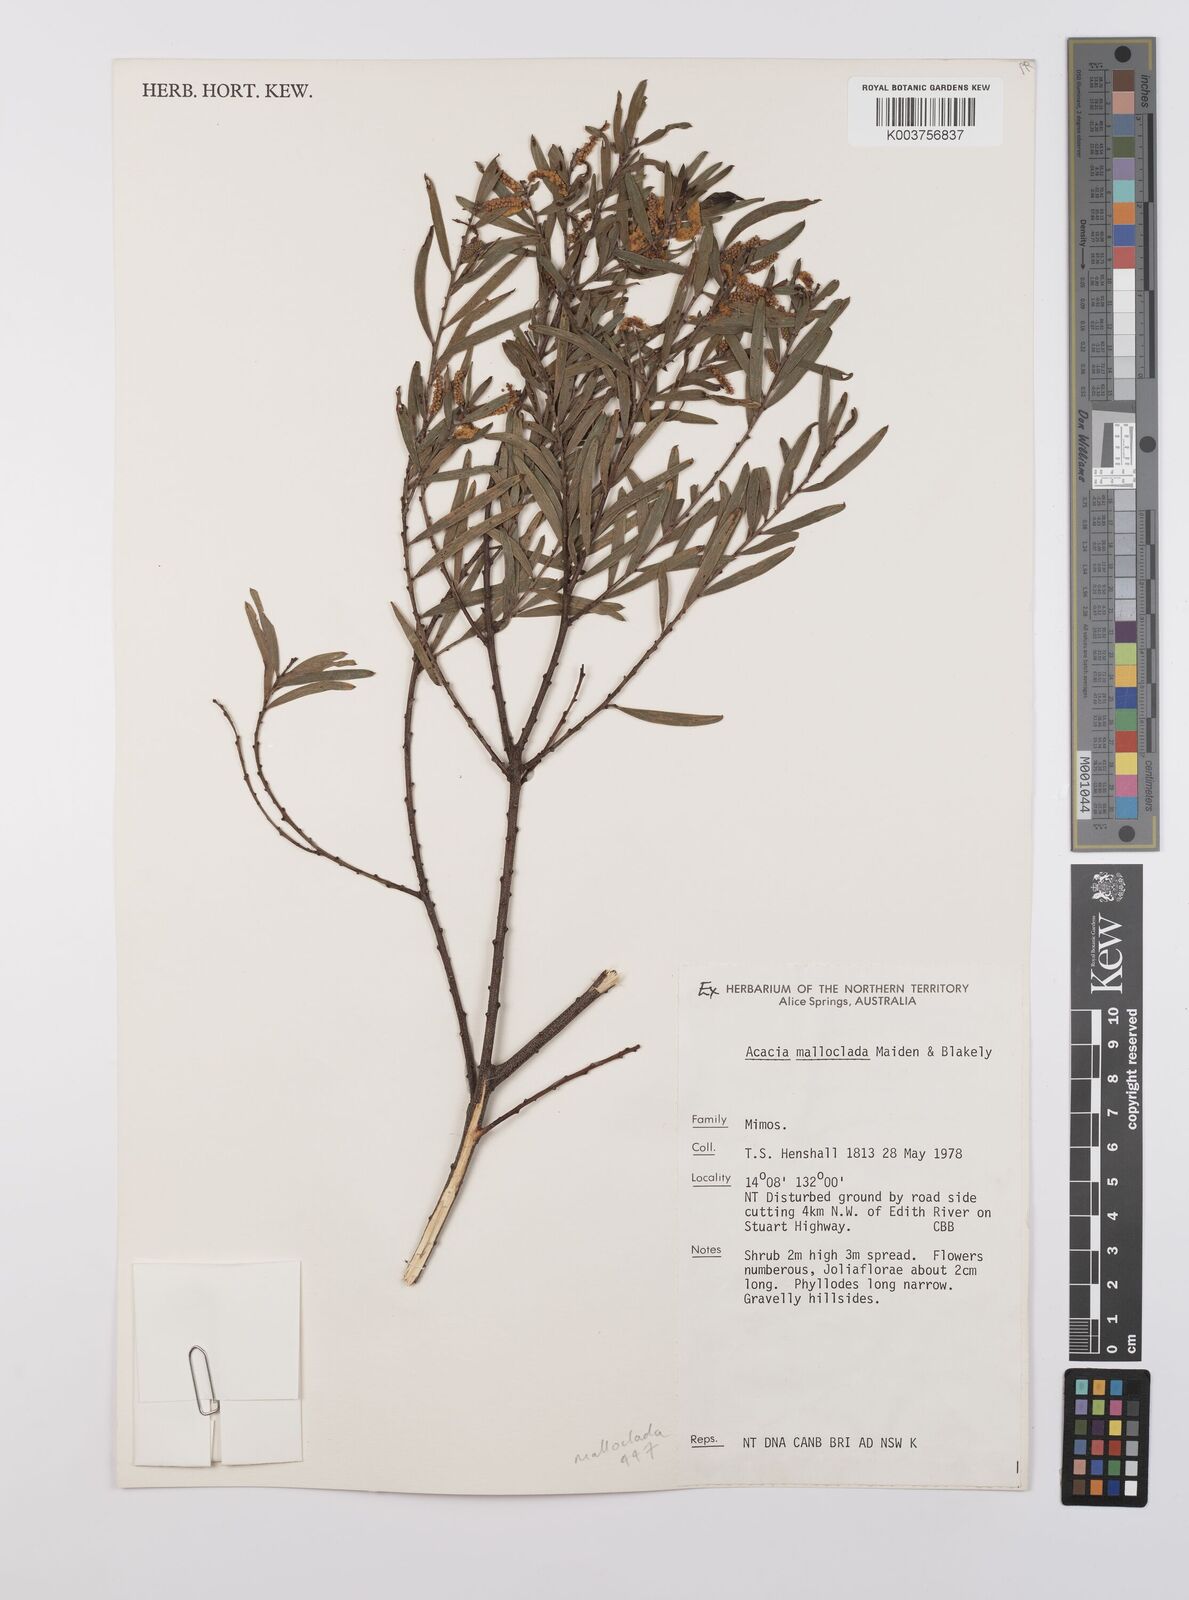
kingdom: Plantae
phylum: Tracheophyta
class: Magnoliopsida
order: Fabales
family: Fabaceae
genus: Acacia
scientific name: Acacia malloclada
